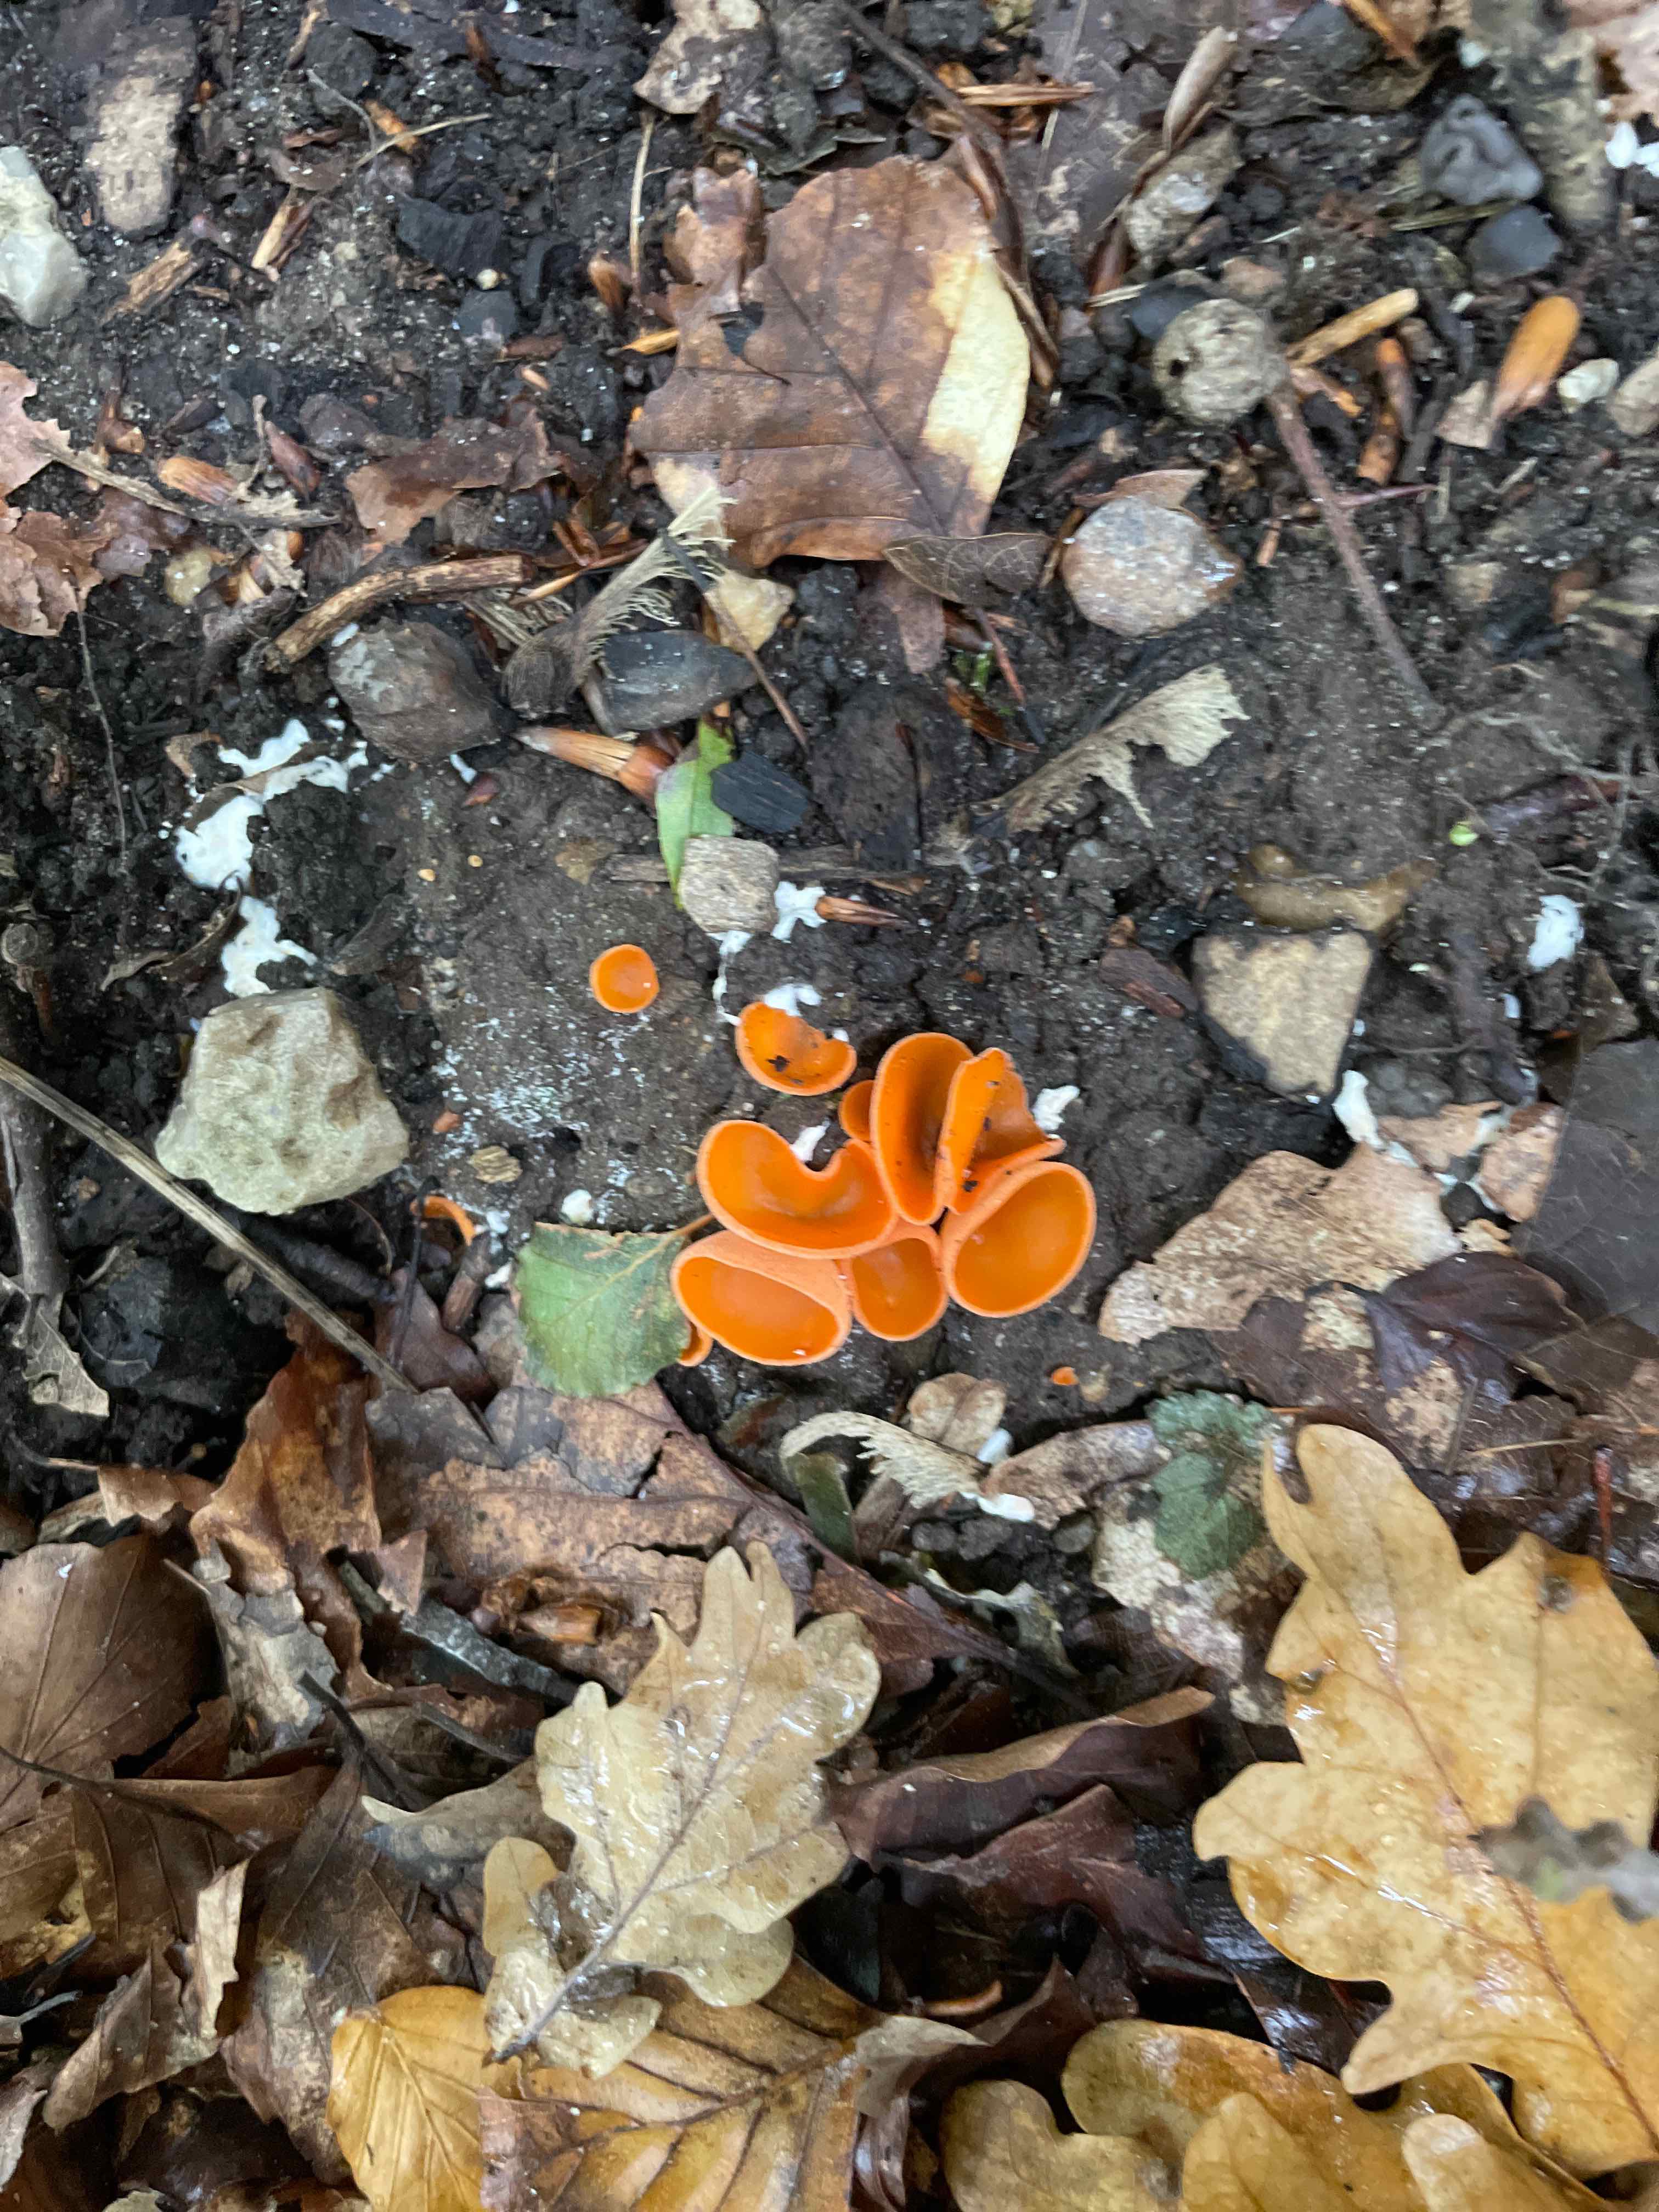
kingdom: Fungi
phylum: Ascomycota
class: Pezizomycetes
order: Pezizales
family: Pyronemataceae
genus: Aleuria
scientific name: Aleuria aurantia
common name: almindelig orangebæger
